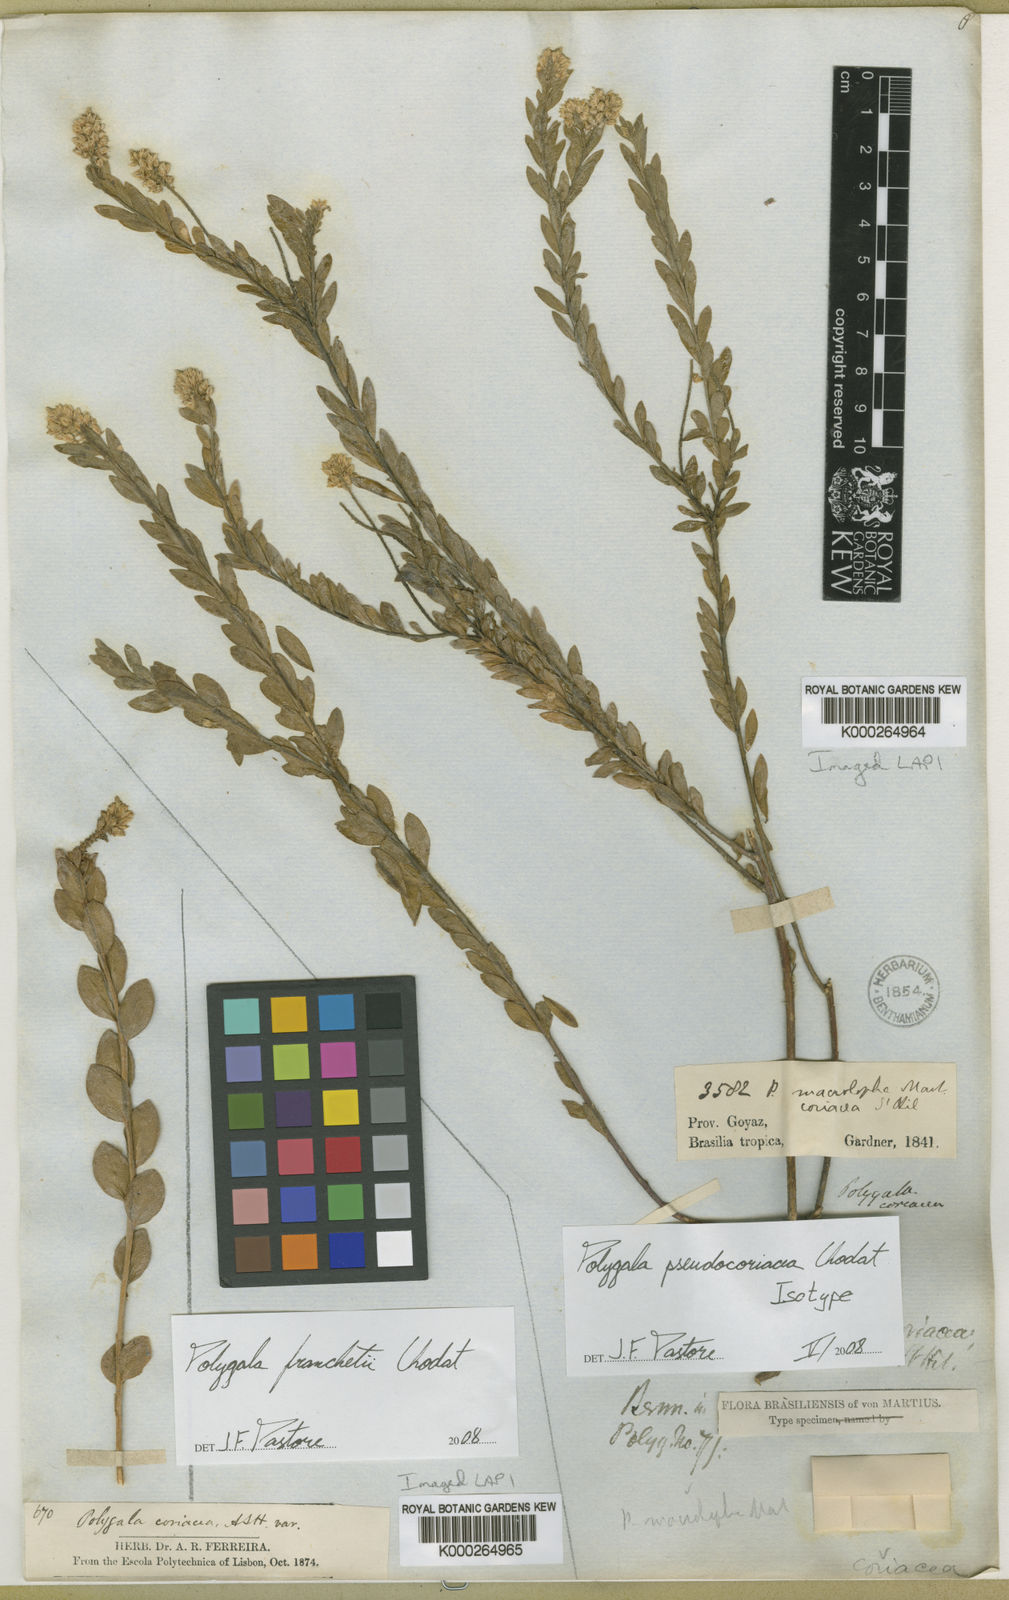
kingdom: Plantae
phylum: Tracheophyta
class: Magnoliopsida
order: Fabales
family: Polygalaceae
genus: Polygala
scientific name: Polygala pseudocoriacea
